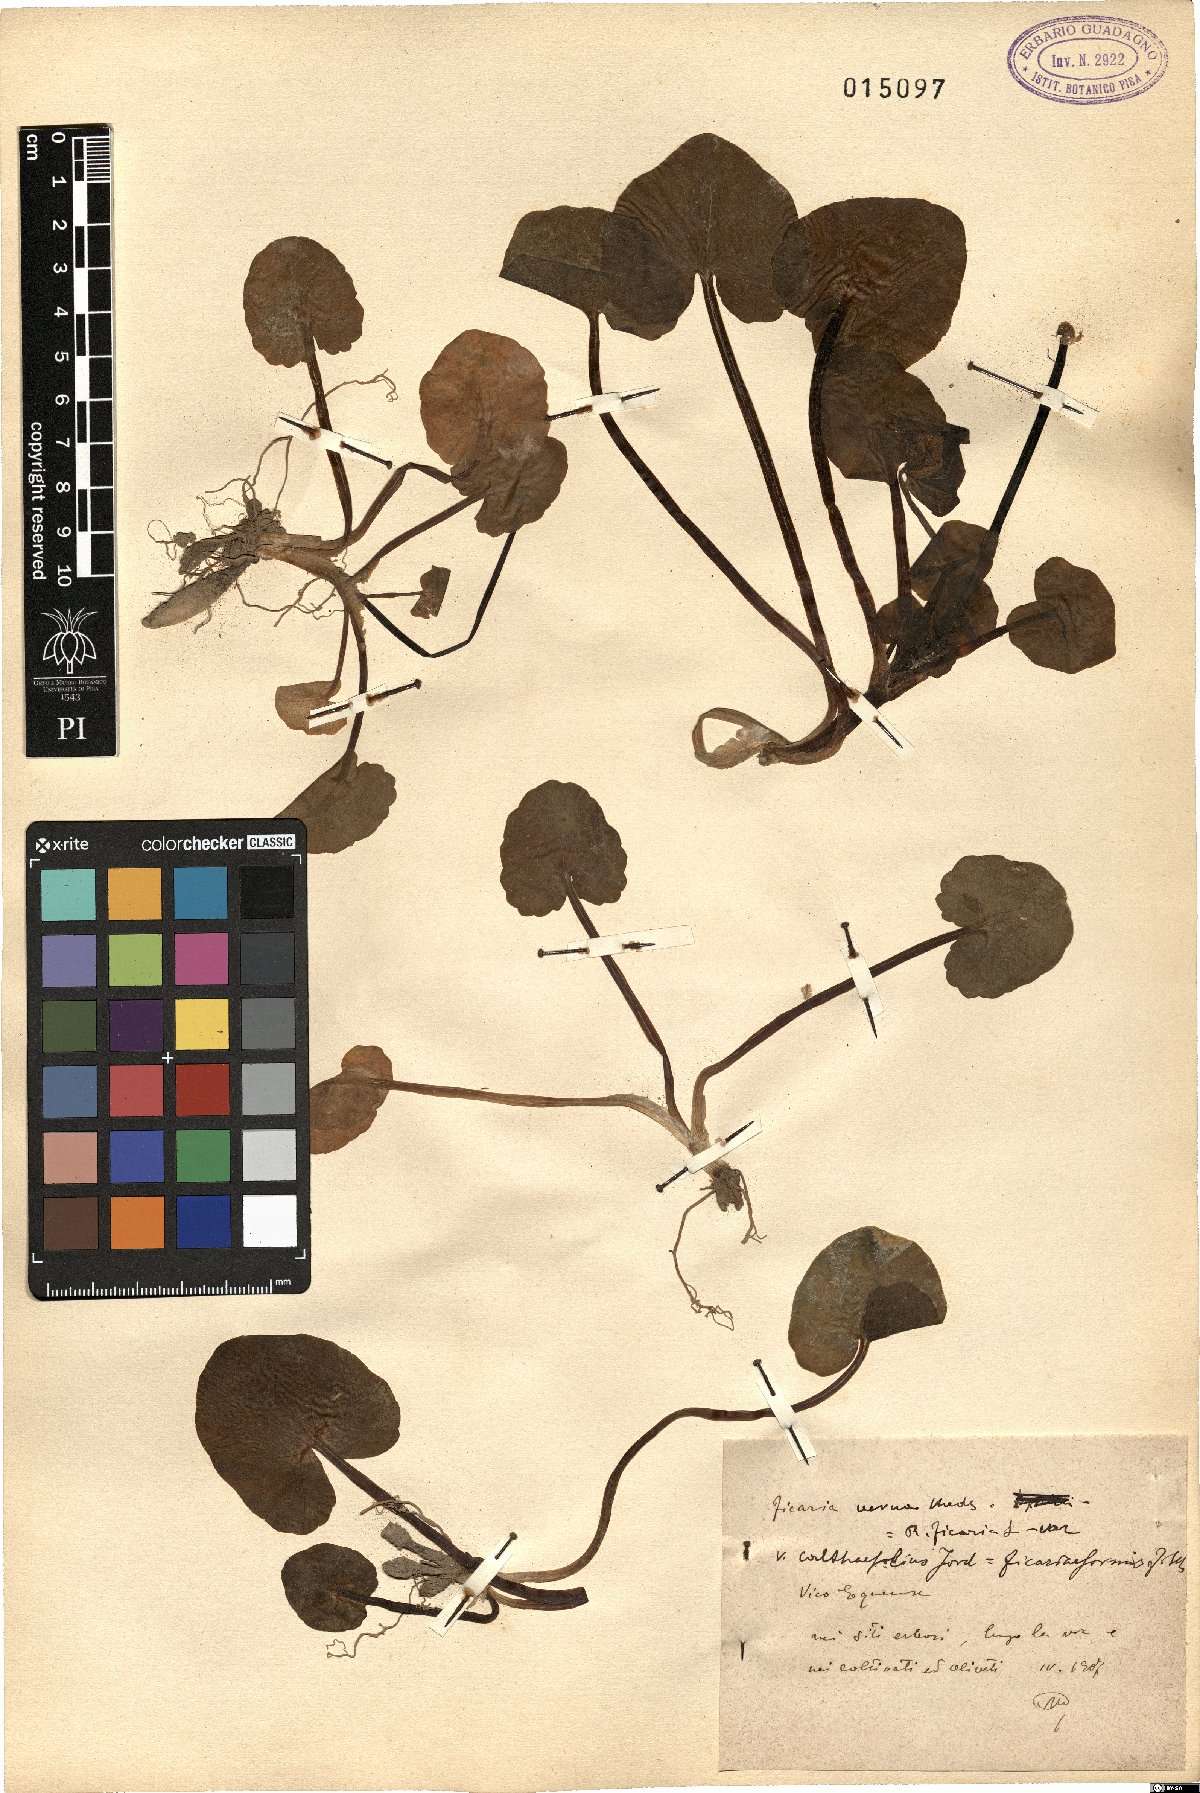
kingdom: Plantae
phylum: Tracheophyta
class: Magnoliopsida
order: Ranunculales
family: Ranunculaceae
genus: Ficaria
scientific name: Ficaria verna
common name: Lesser celandine
